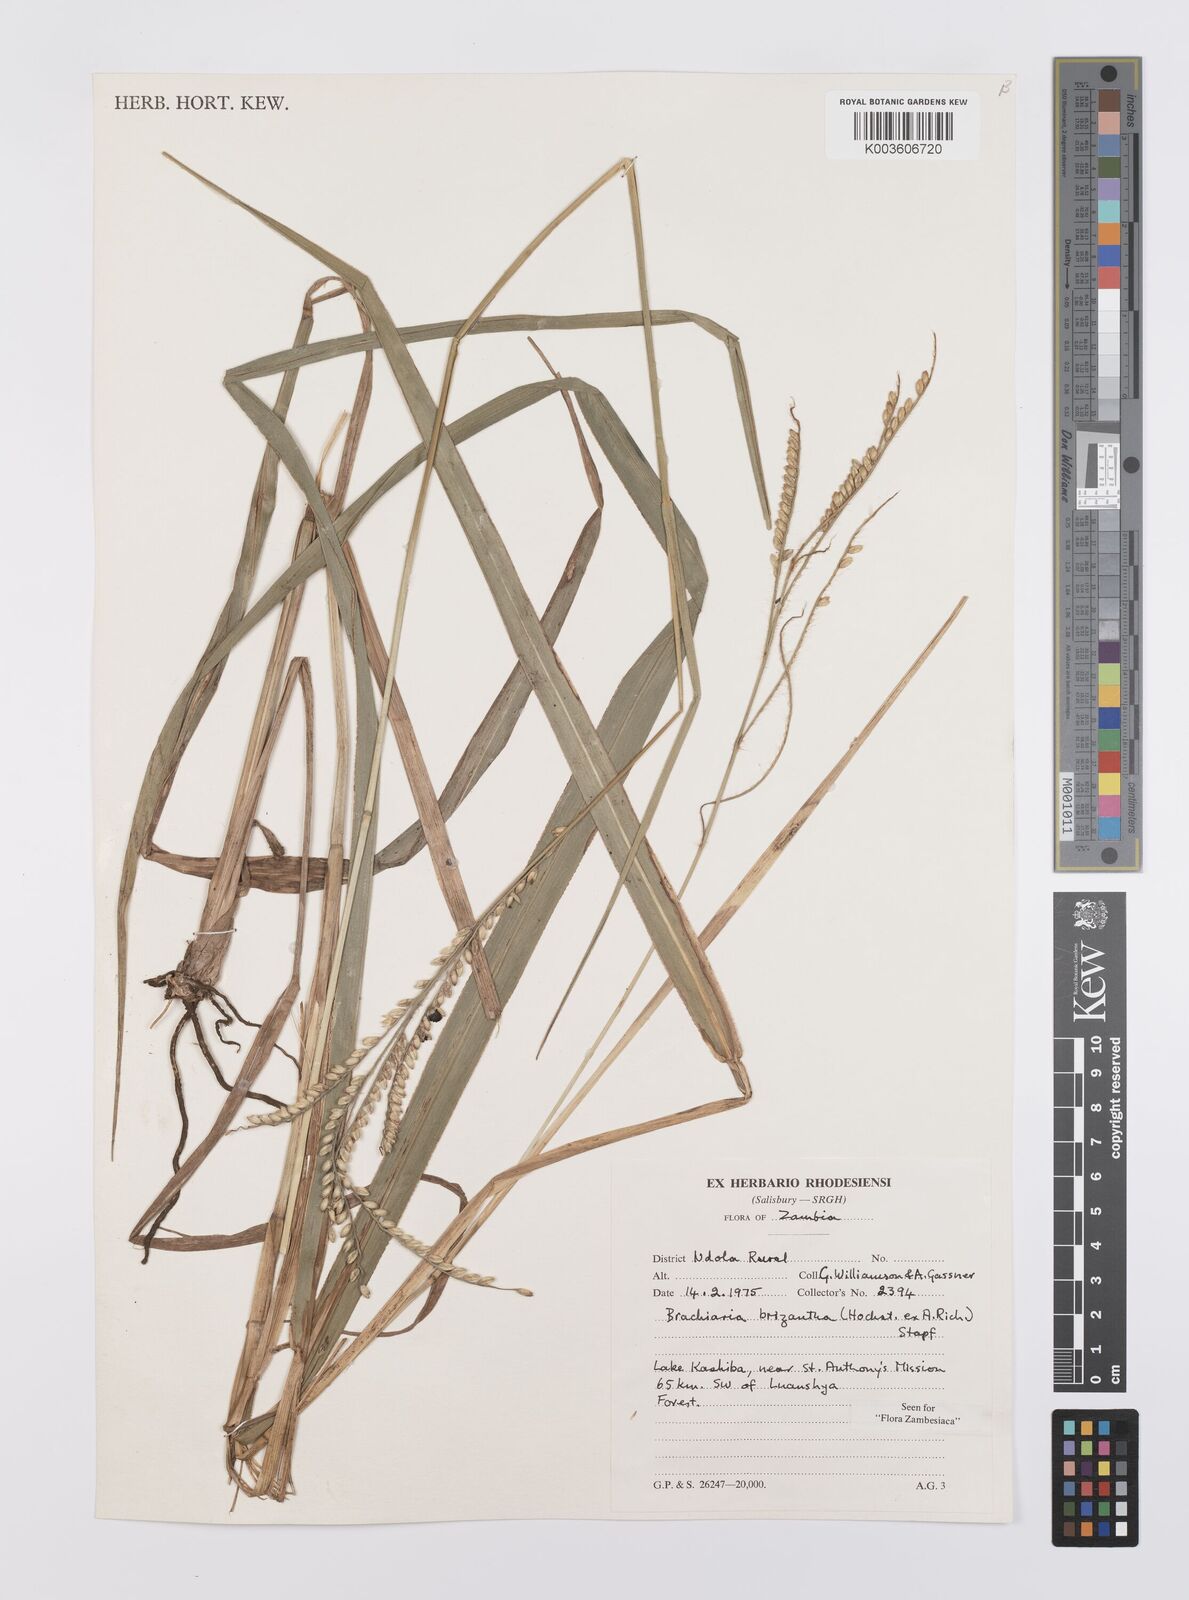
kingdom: Plantae
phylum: Tracheophyta
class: Liliopsida
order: Poales
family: Poaceae
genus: Urochloa
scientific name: Urochloa brizantha
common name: Palisade signalgrass
